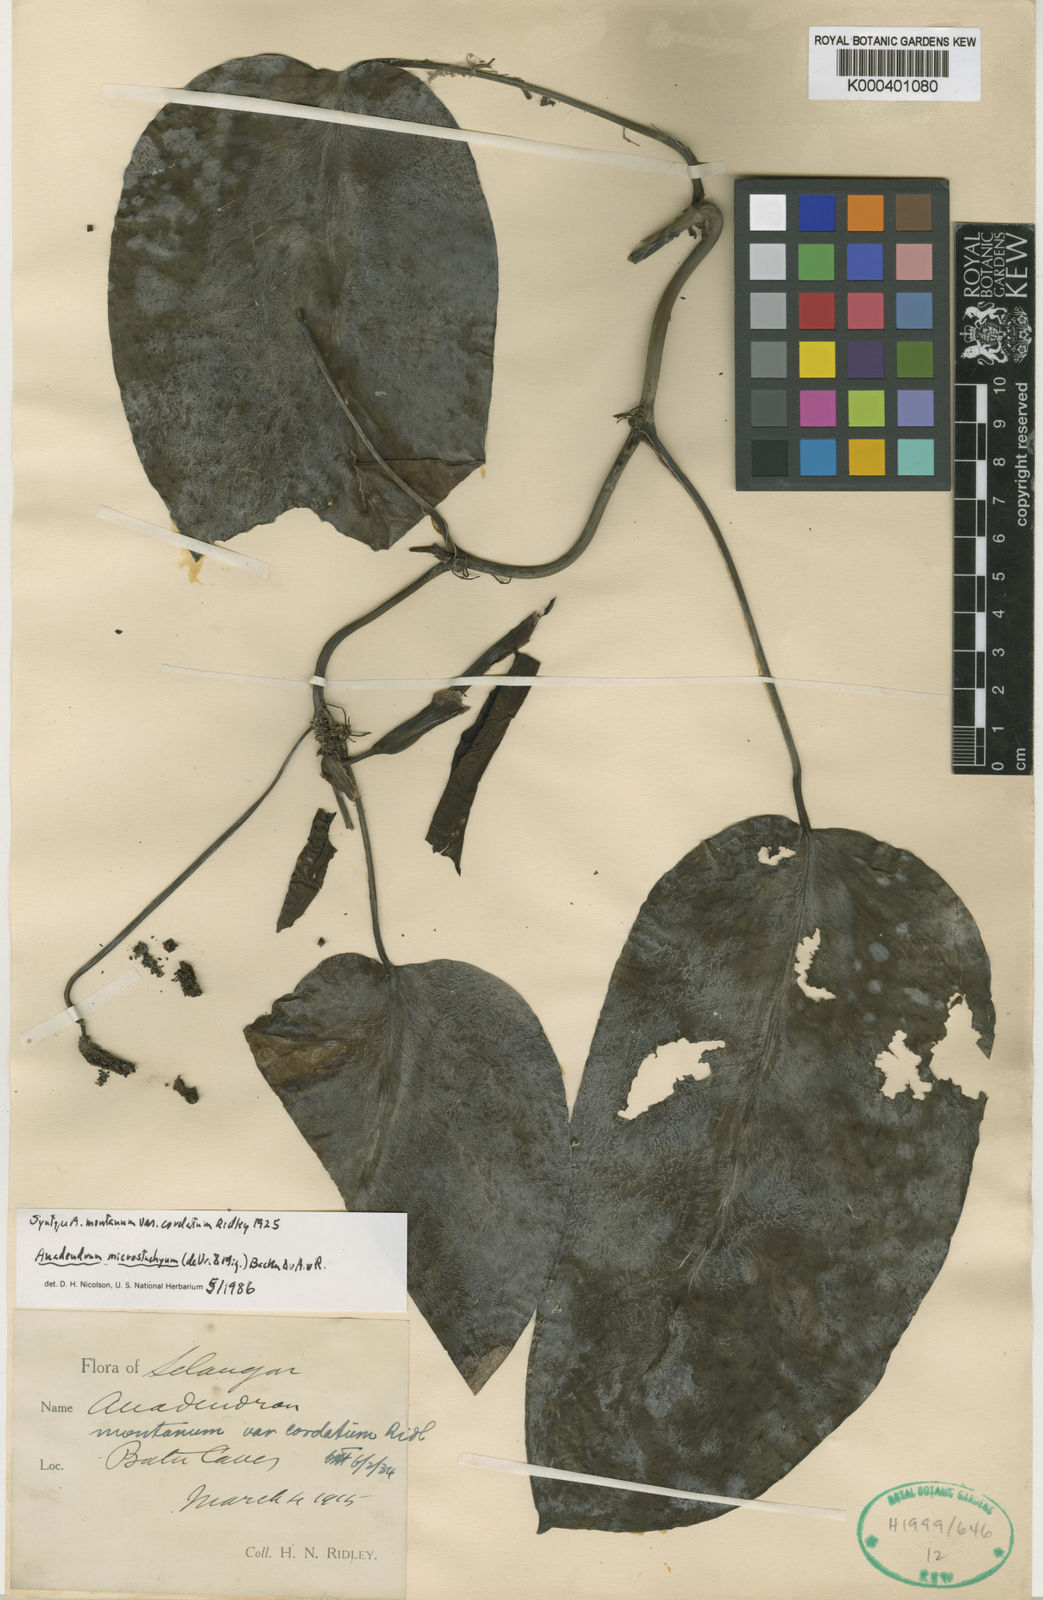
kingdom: Plantae
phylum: Tracheophyta
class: Liliopsida
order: Alismatales
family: Araceae
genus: Anadendrum
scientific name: Anadendrum microstachyum
